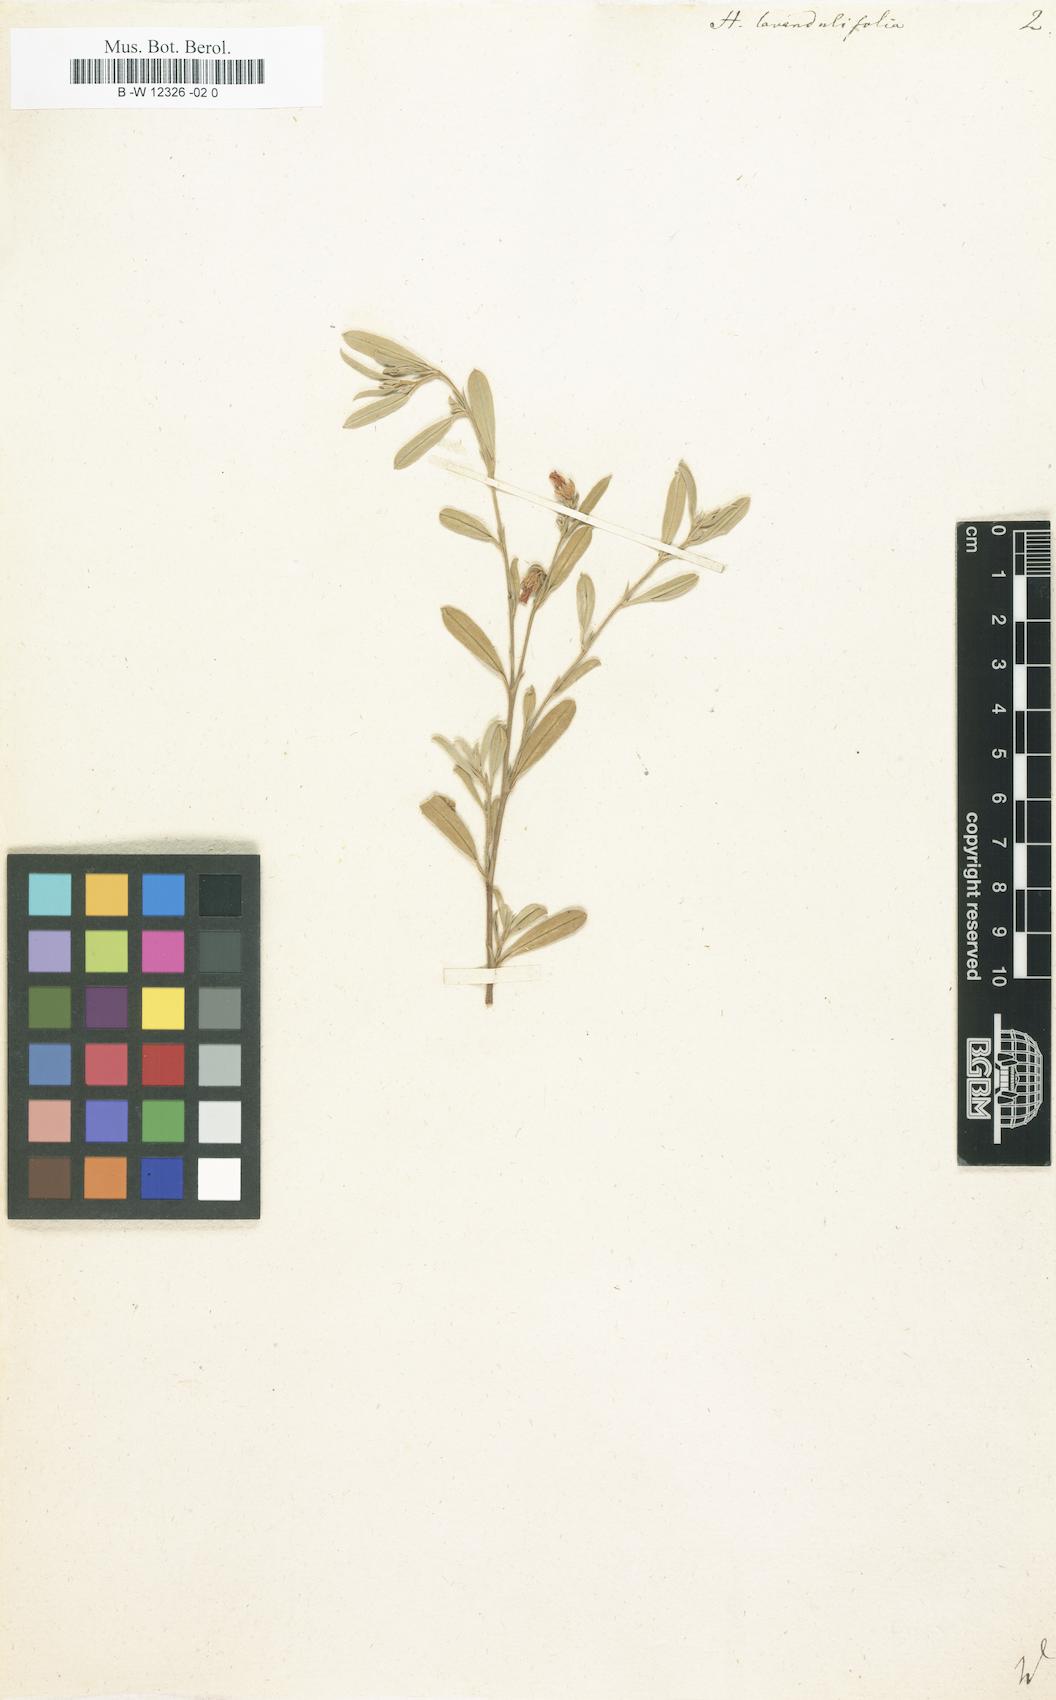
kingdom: Plantae
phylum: Tracheophyta
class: Magnoliopsida
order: Malvales
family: Malvaceae
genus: Hermannia
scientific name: Hermannia lavandulifolia
